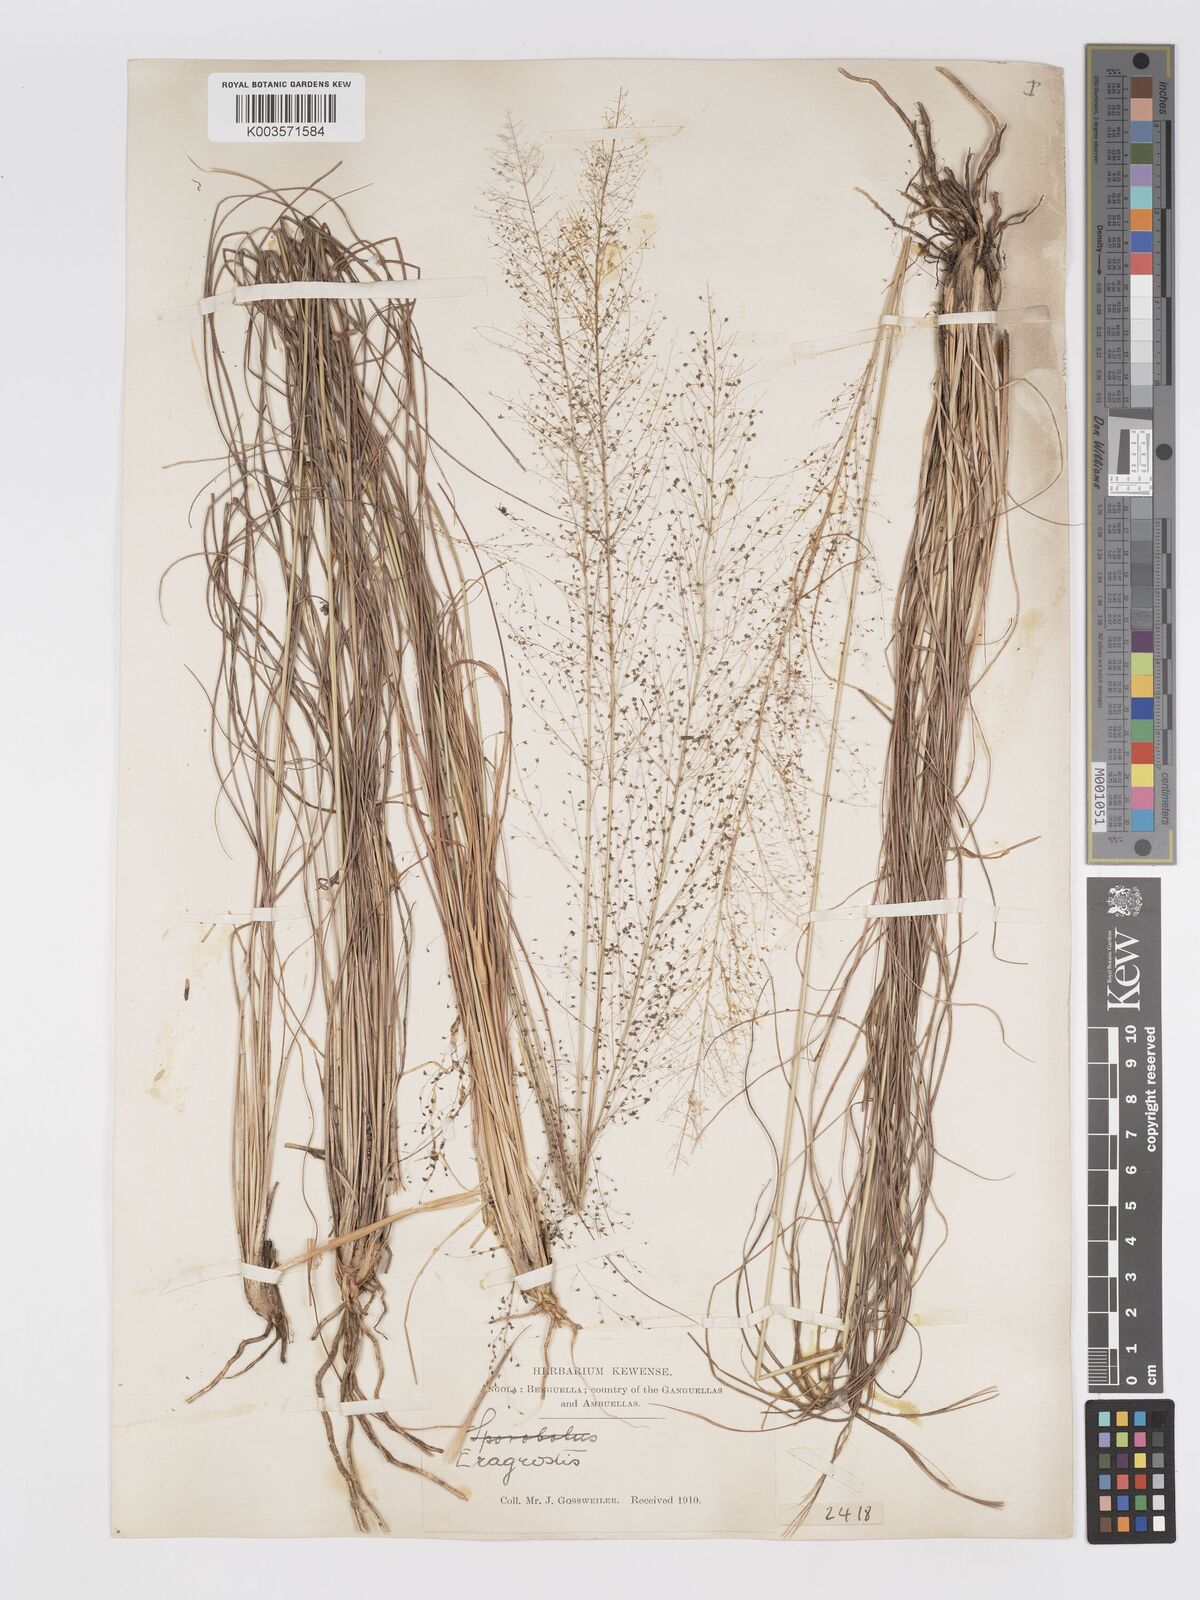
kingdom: Plantae
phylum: Tracheophyta
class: Liliopsida
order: Poales
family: Poaceae
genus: Eragrostis
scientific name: Eragrostis habrantha
